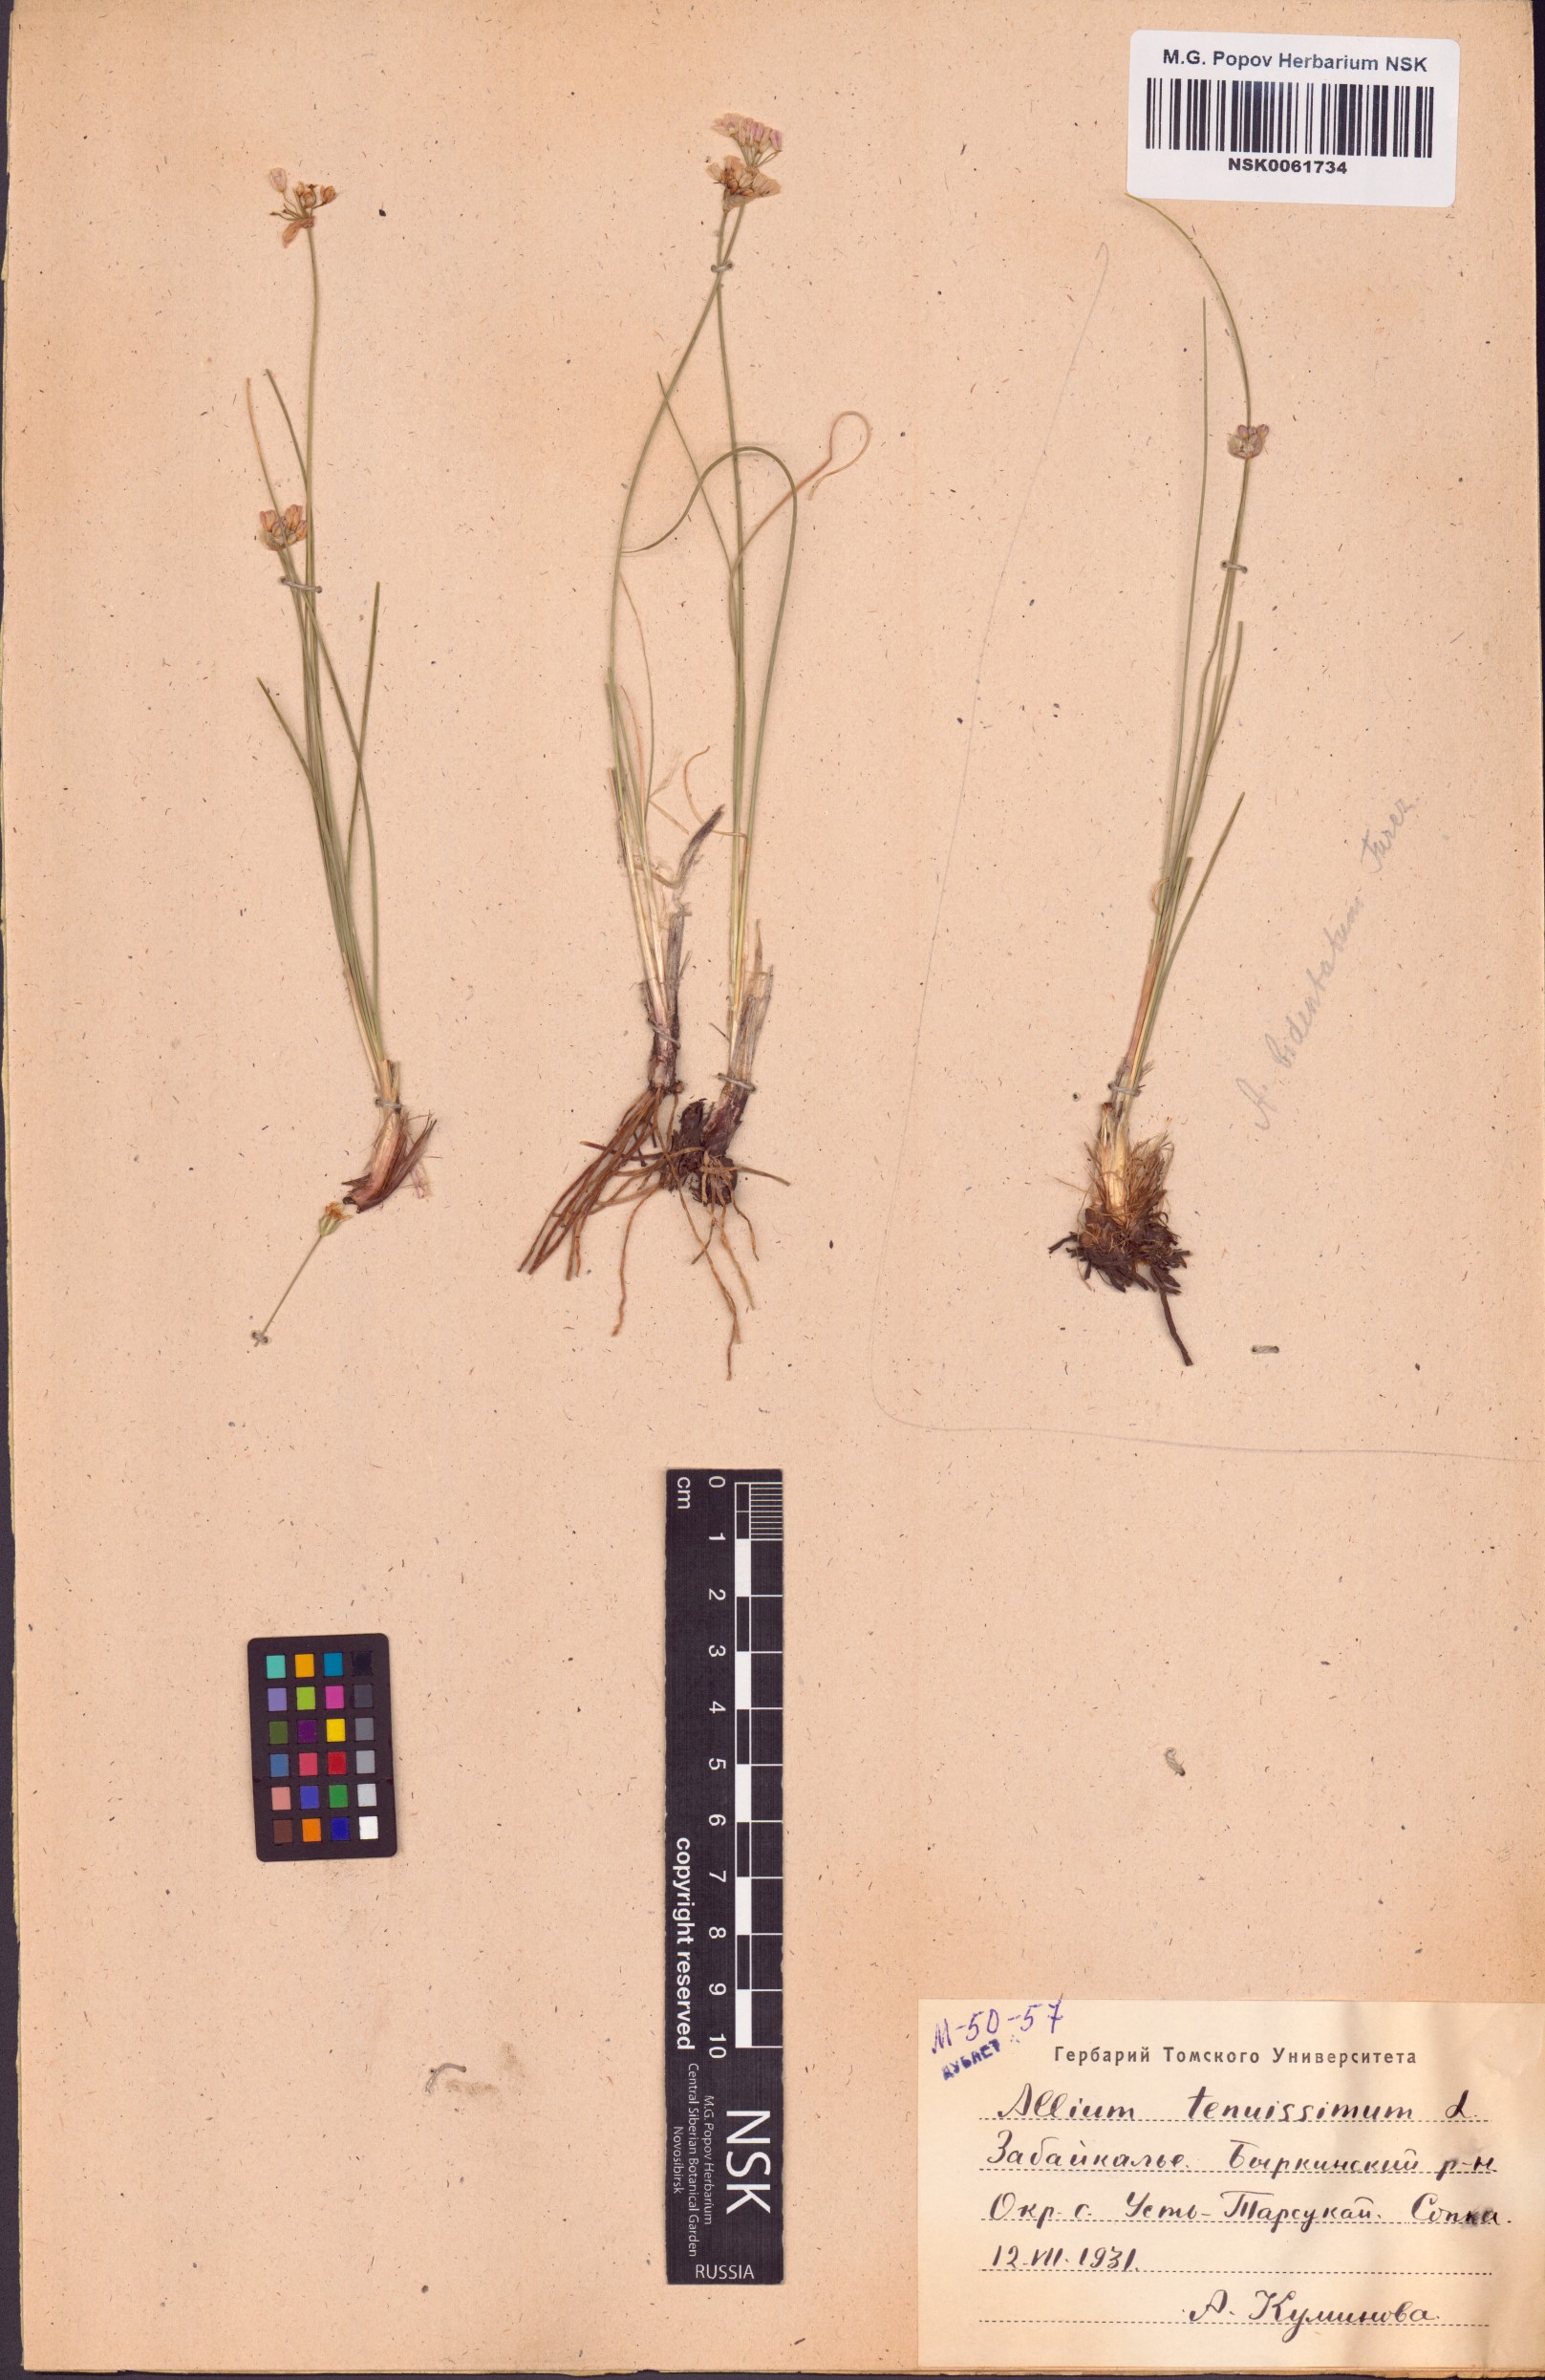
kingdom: Plantae
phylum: Tracheophyta
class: Liliopsida
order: Asparagales
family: Amaryllidaceae
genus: Allium
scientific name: Allium tenuissimum
